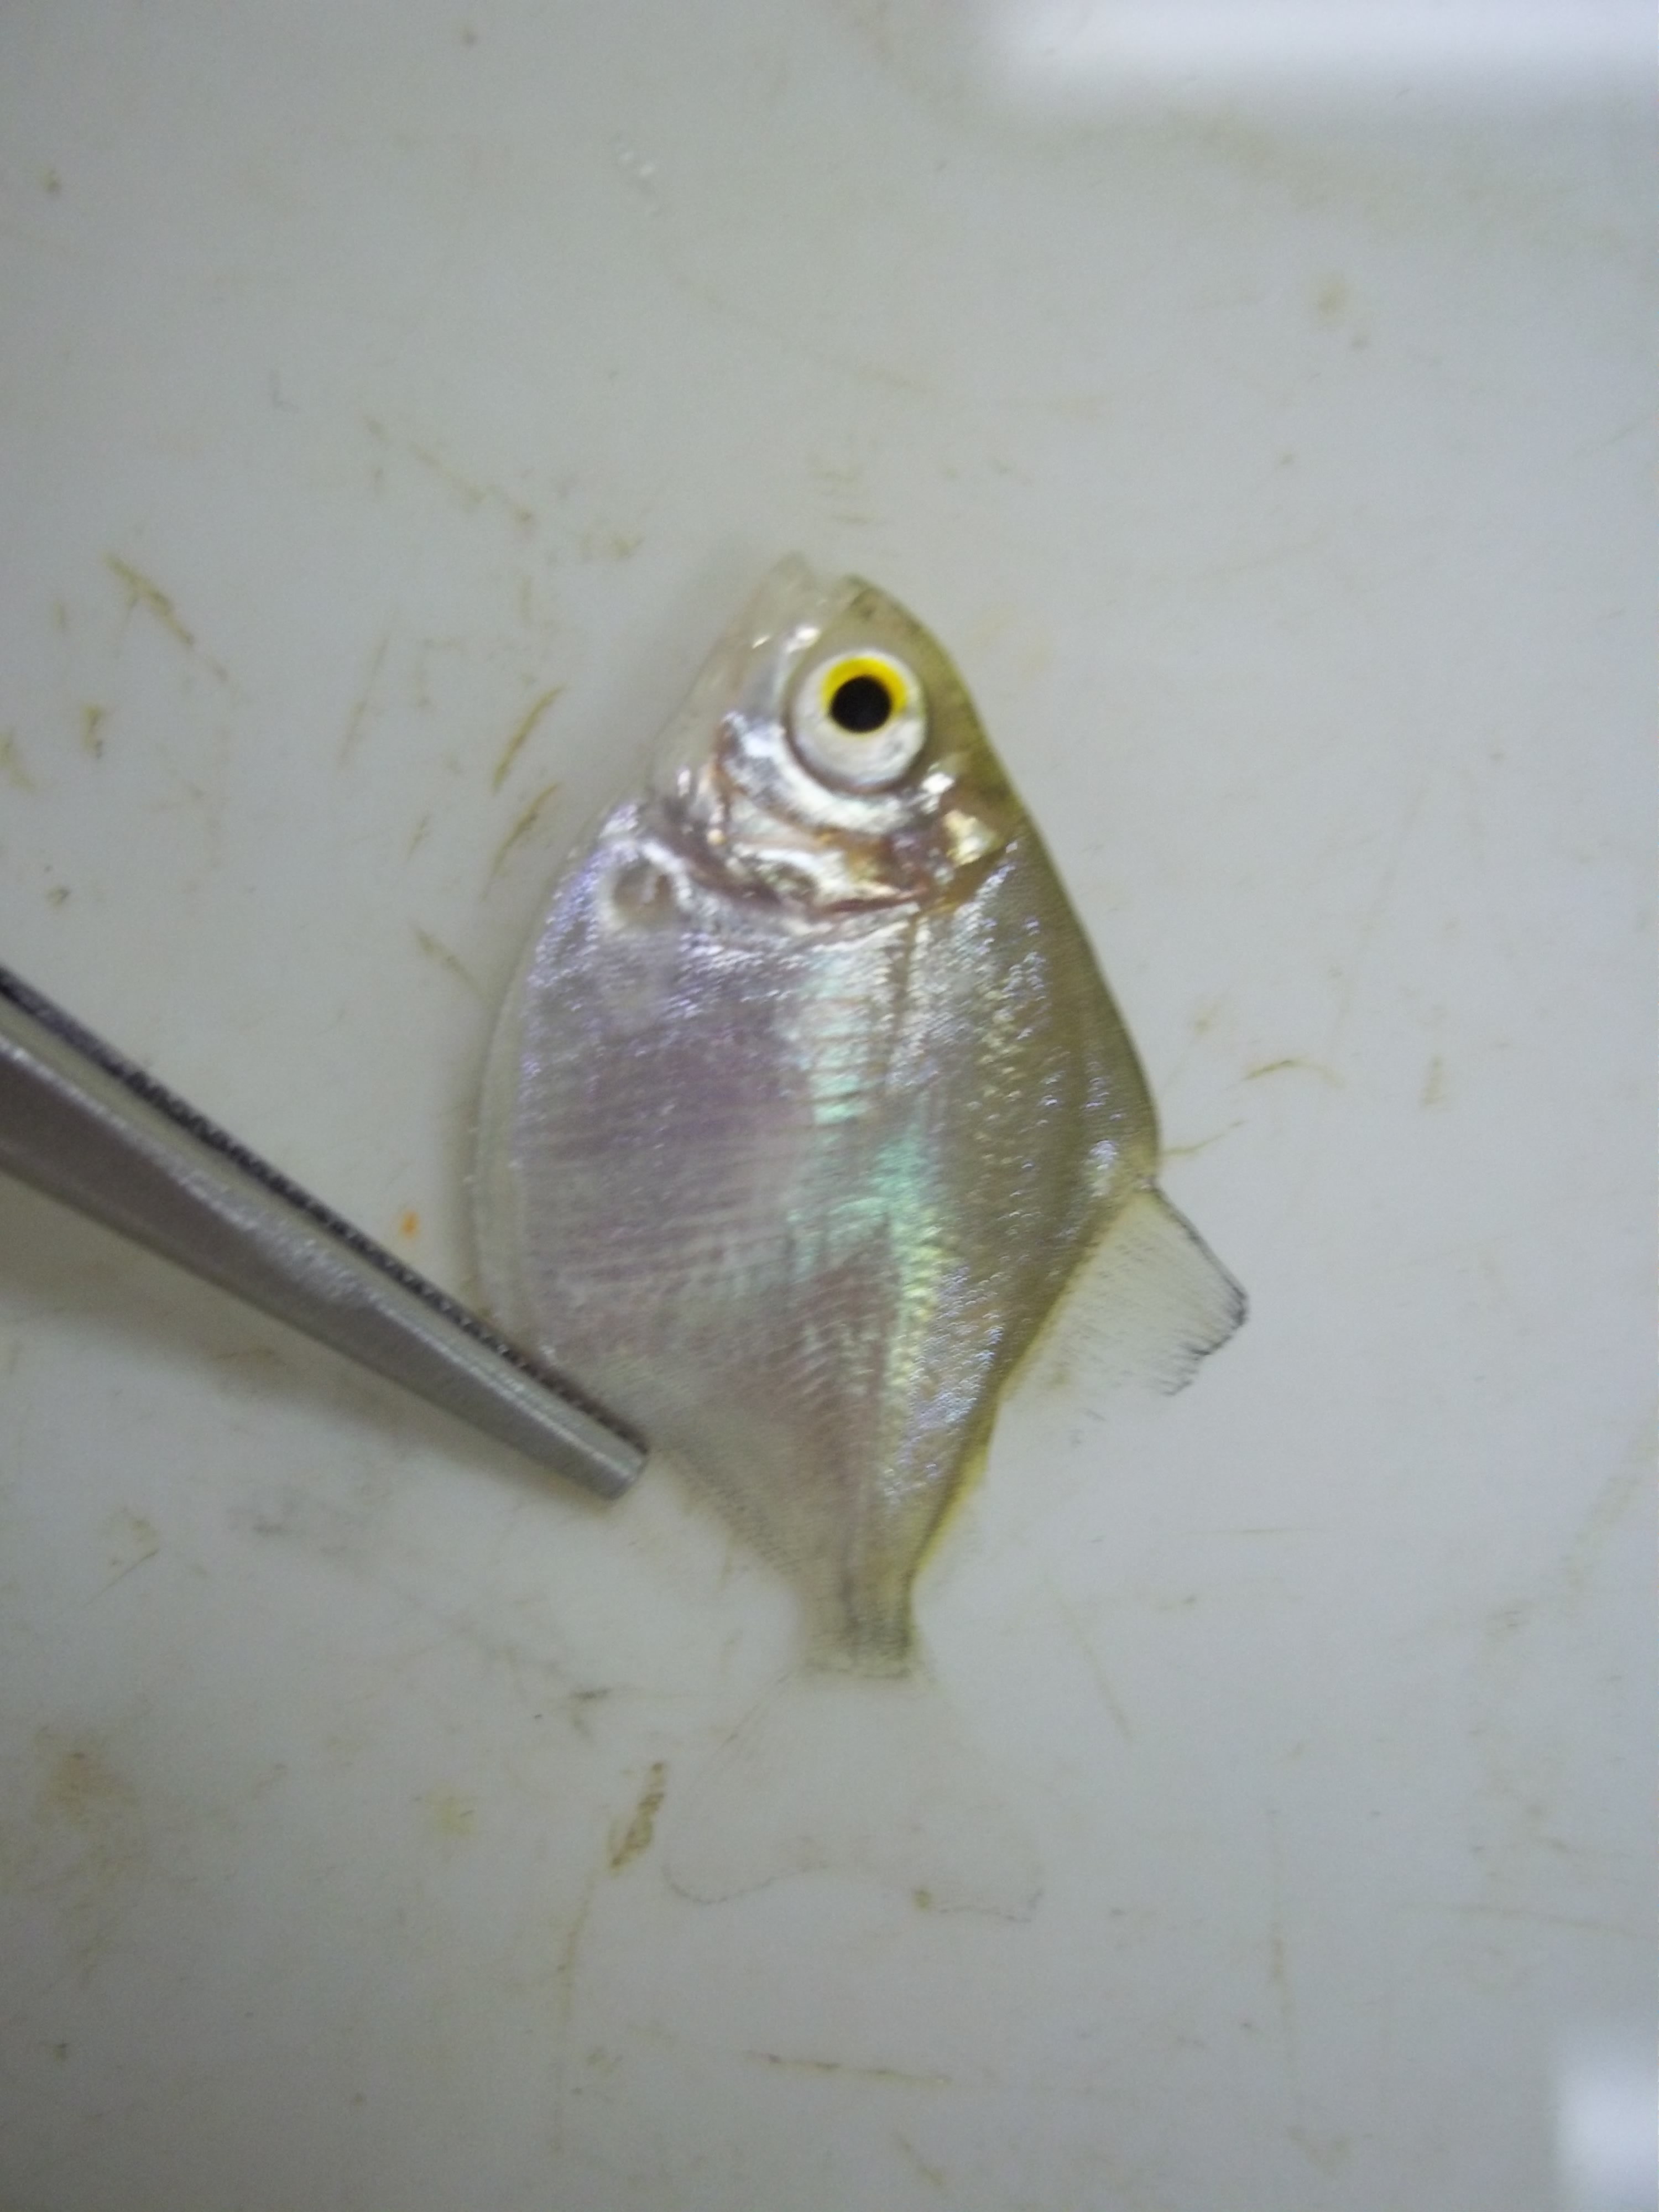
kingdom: Animalia
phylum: Chordata
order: Characiformes
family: Serrasalmidae
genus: Metynnis
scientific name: Metynnis hypsauchen
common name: Plain metynnis
